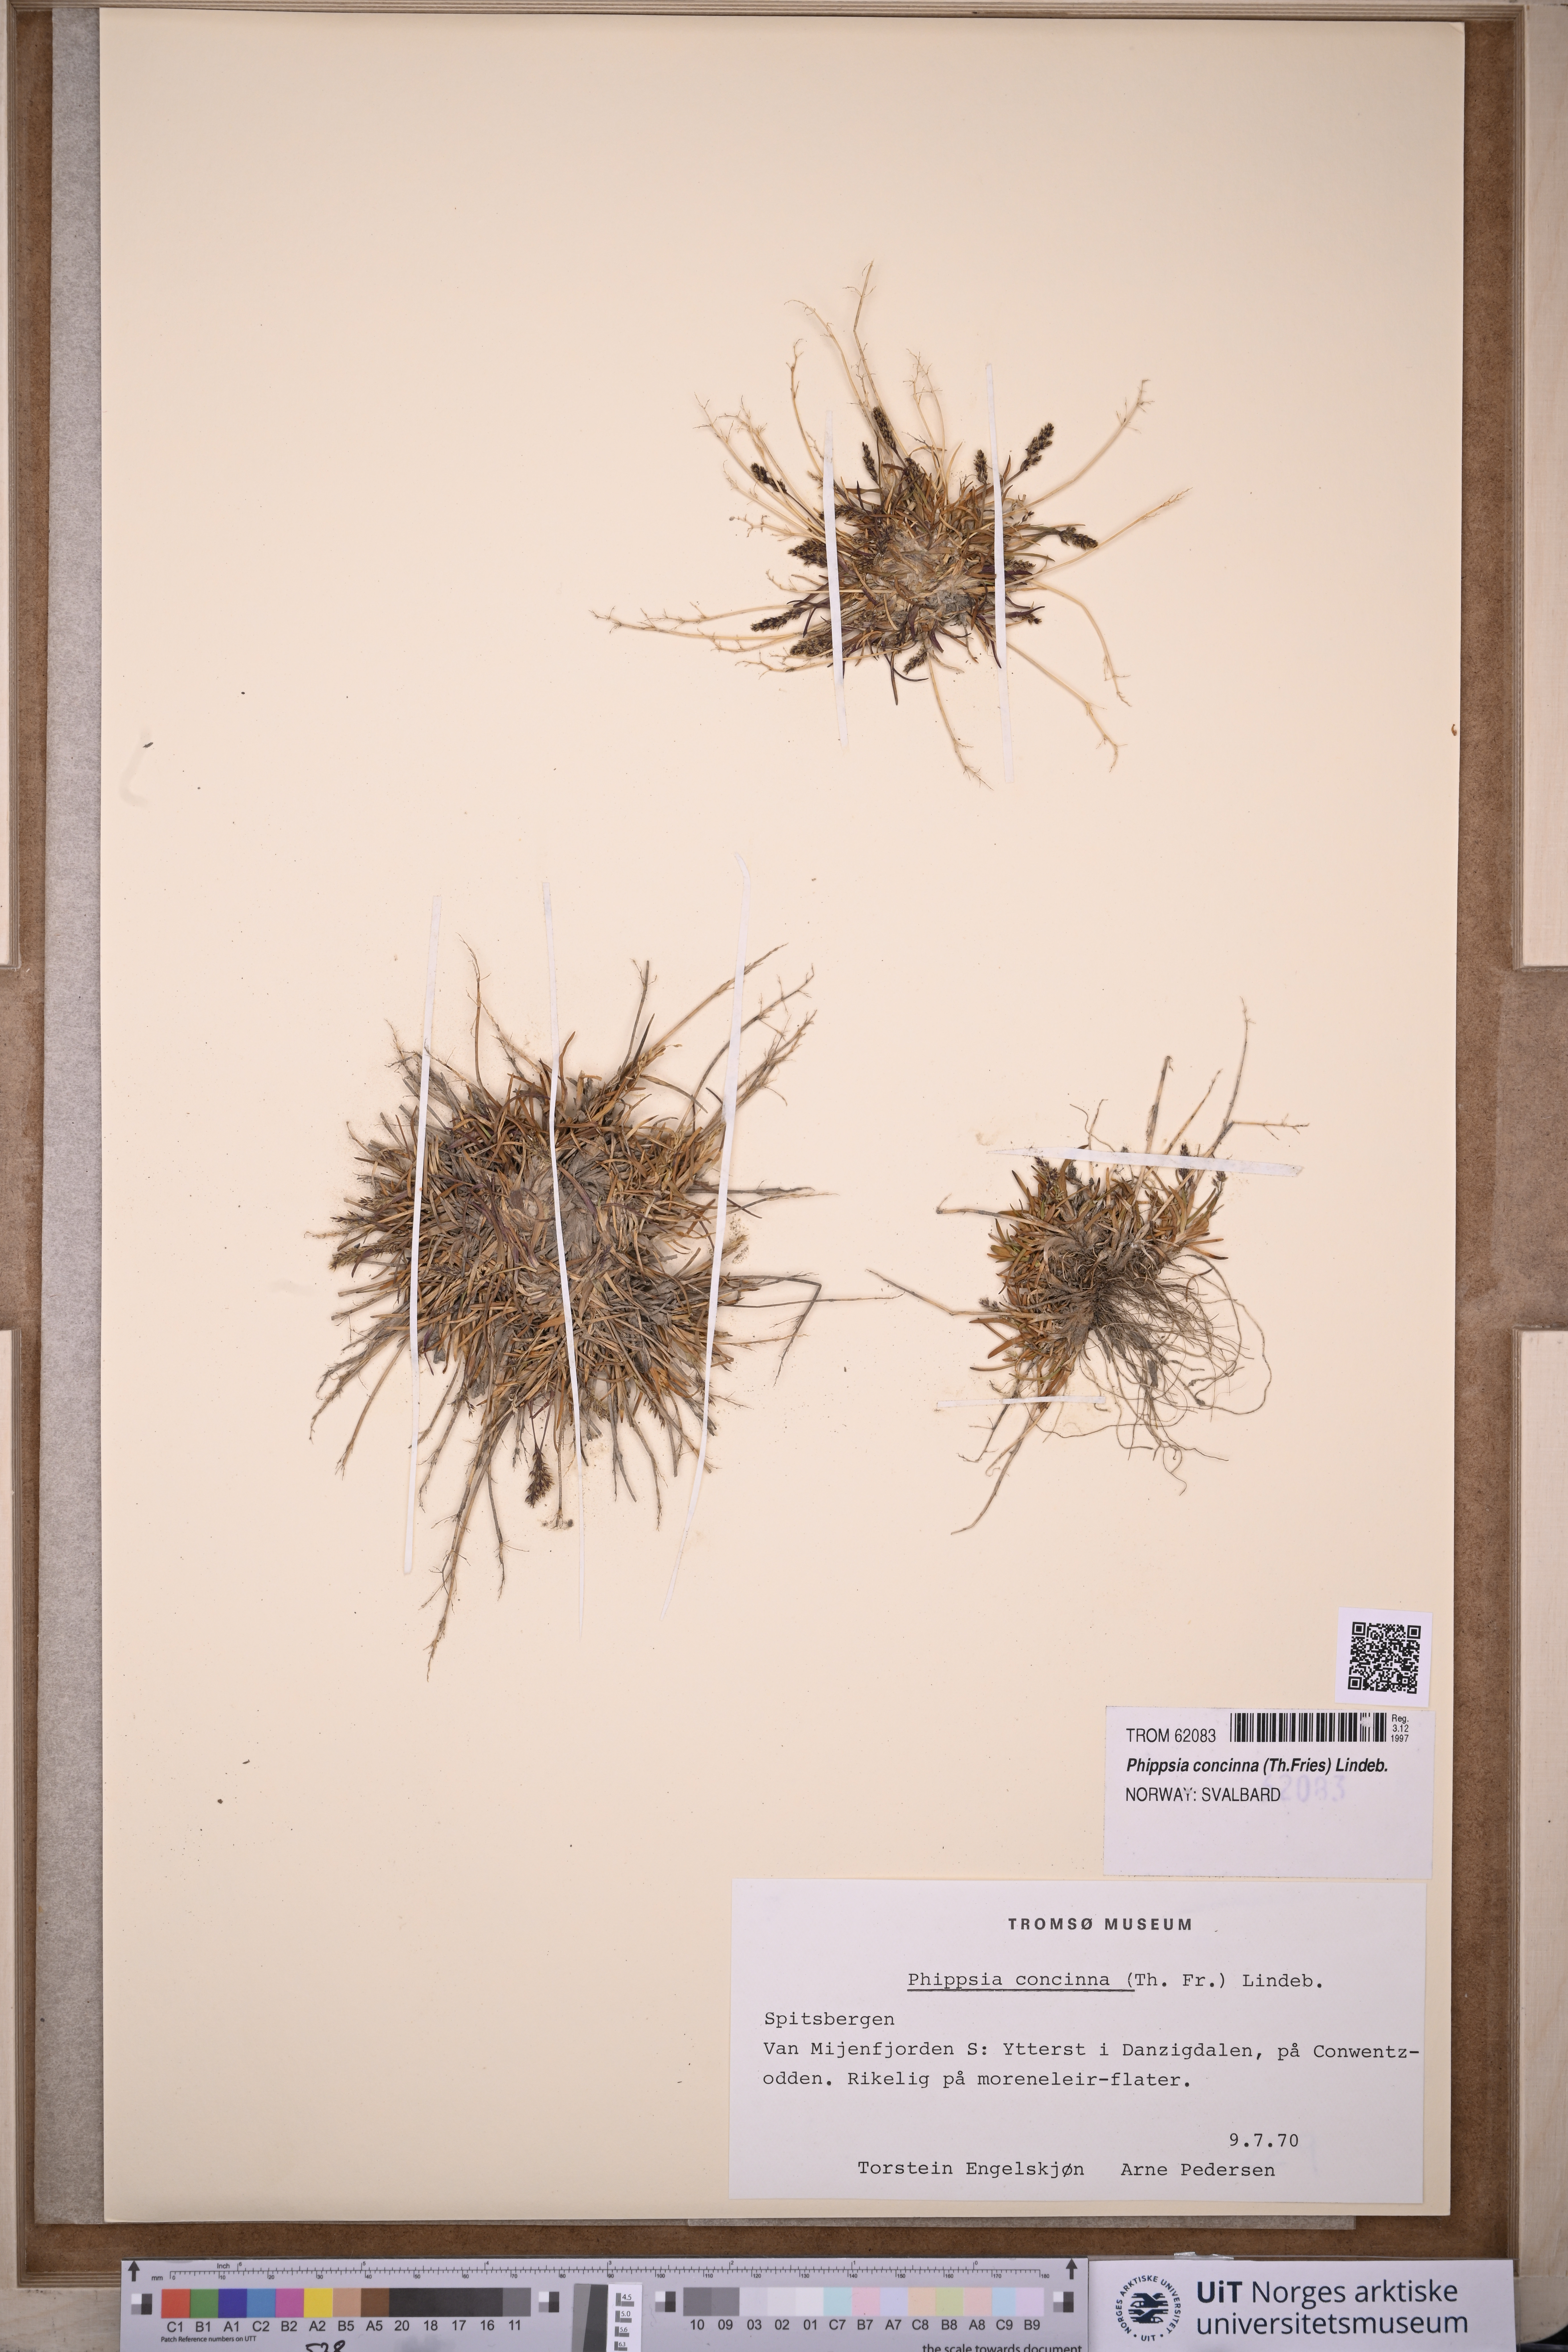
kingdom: Plantae
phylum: Tracheophyta
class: Liliopsida
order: Poales
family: Poaceae
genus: Phippsia
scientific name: Phippsia concinna
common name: Snowgrass
